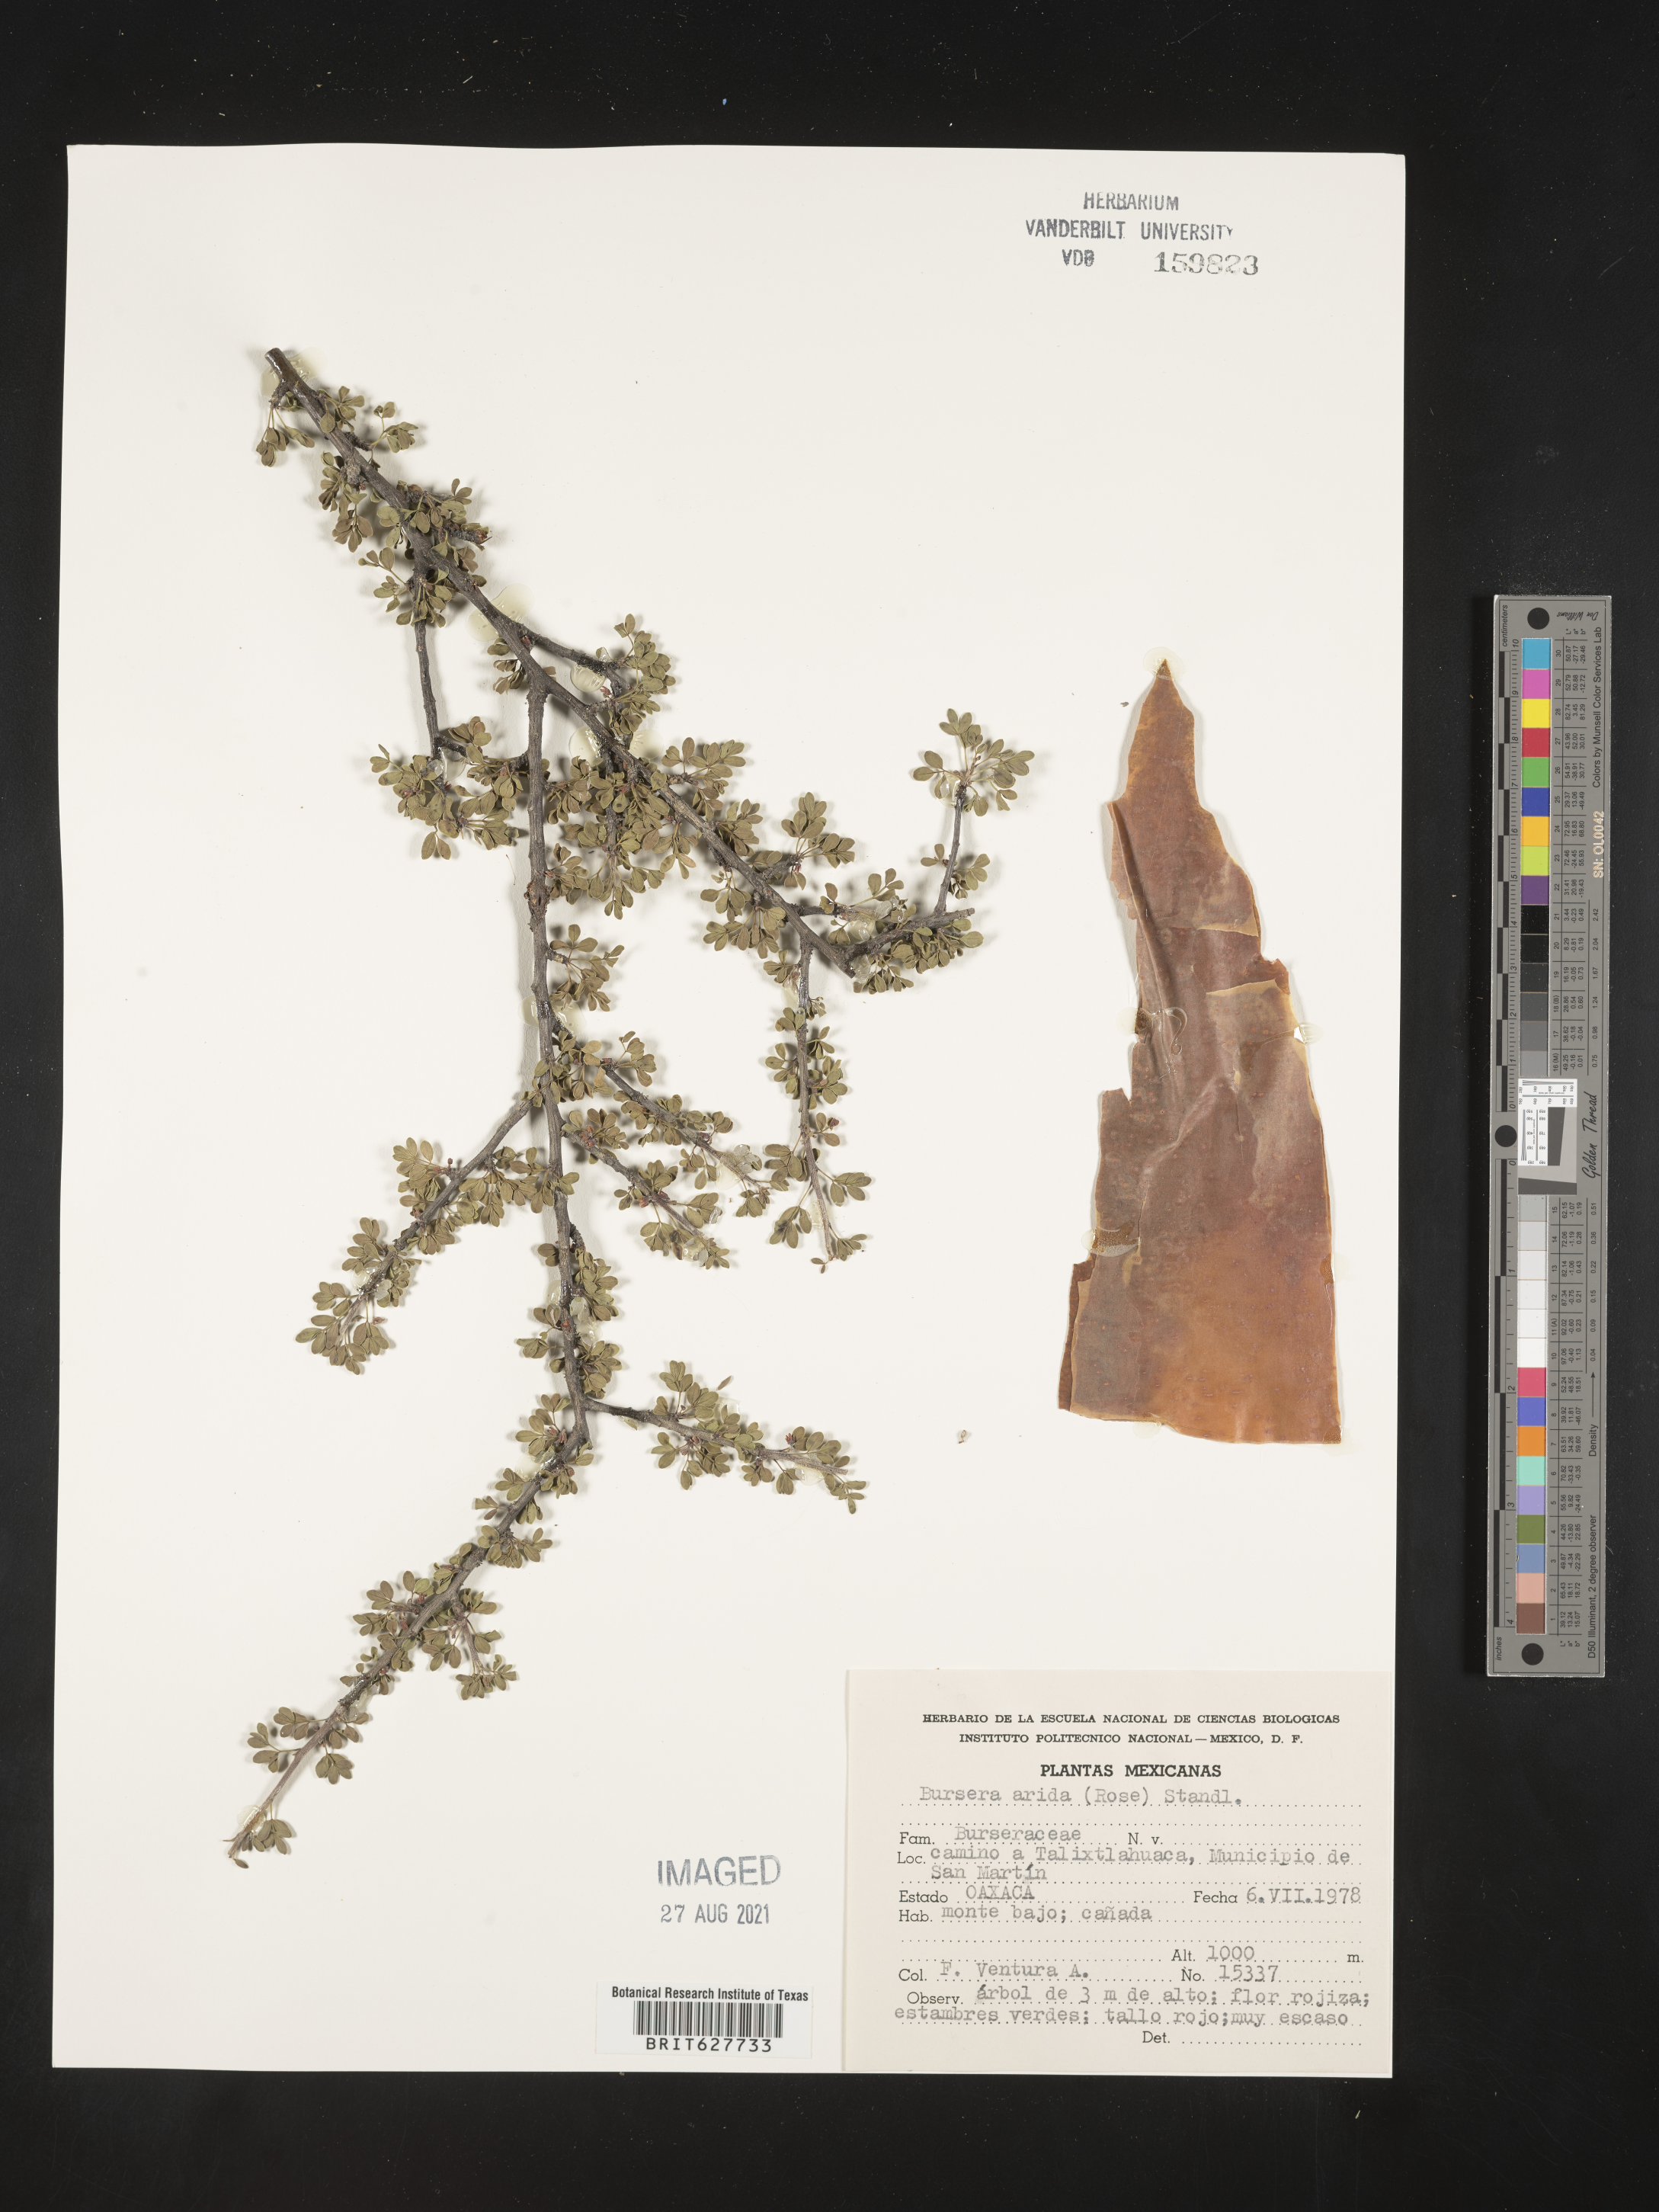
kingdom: Plantae
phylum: Tracheophyta
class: Magnoliopsida
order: Sapindales
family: Burseraceae
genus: Bursera
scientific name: Bursera
